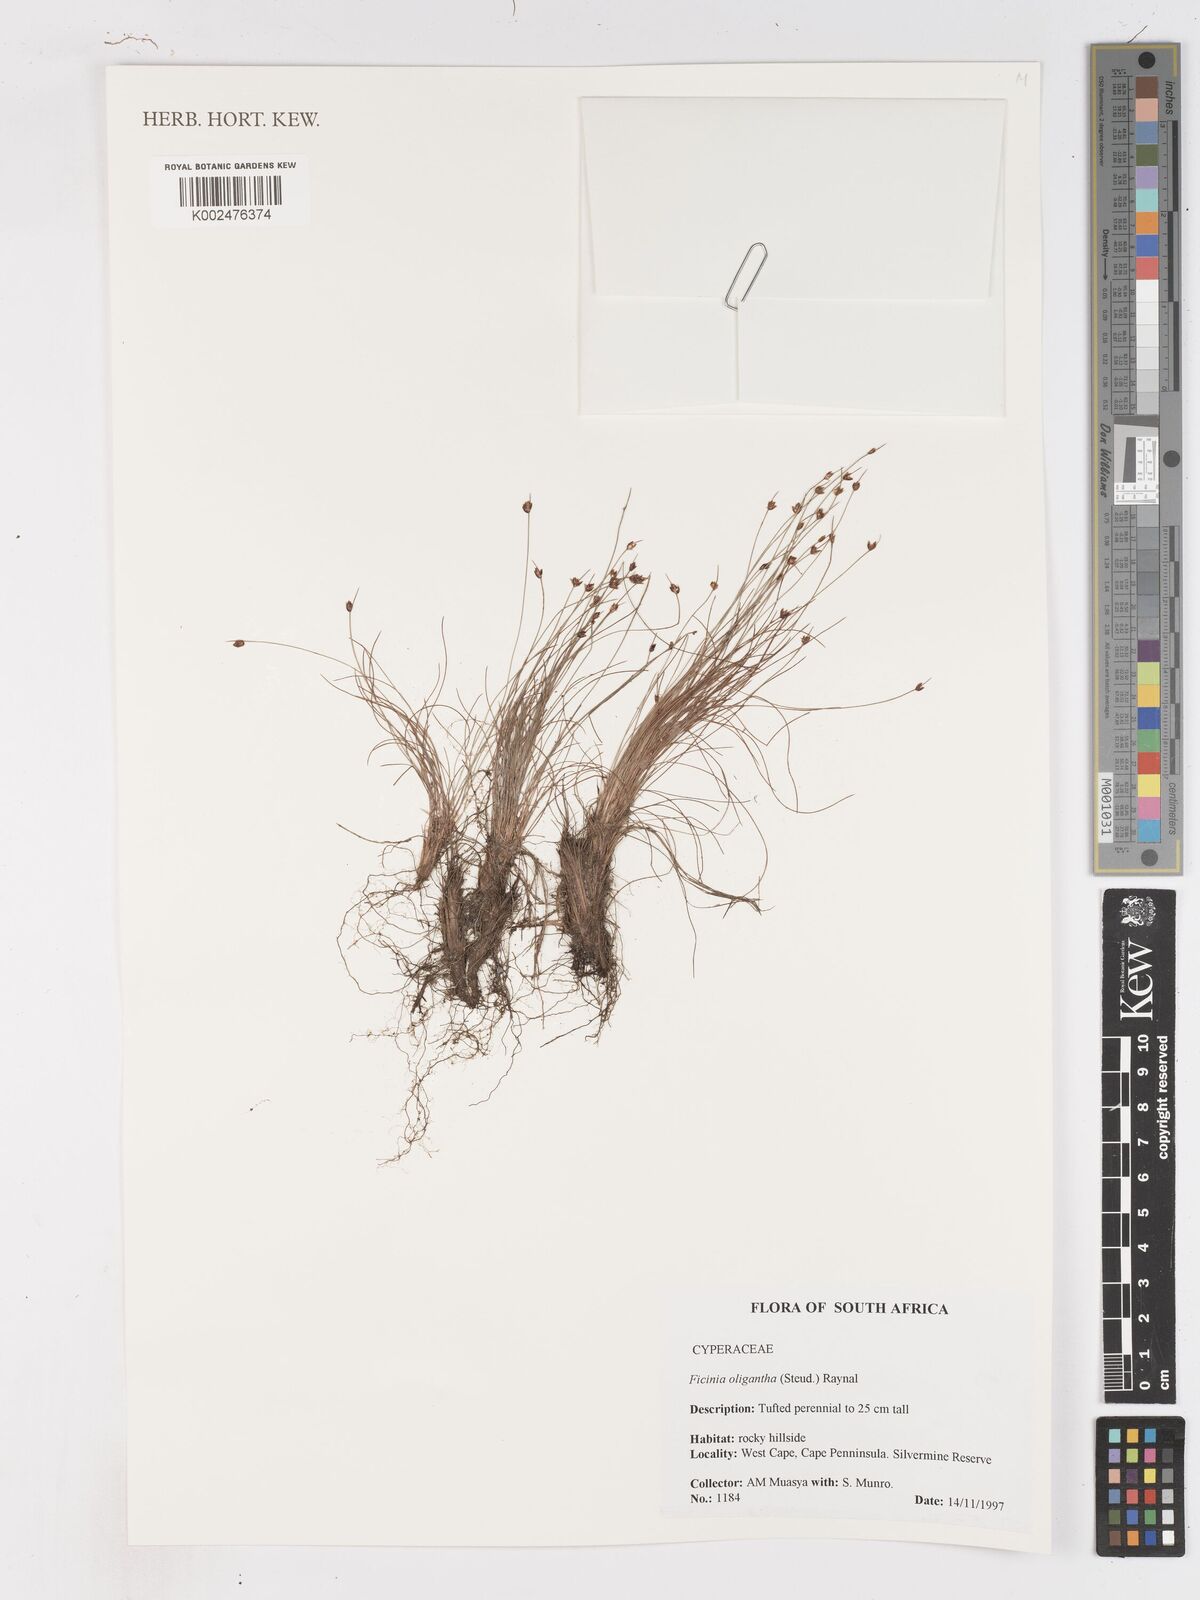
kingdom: Plantae
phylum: Tracheophyta
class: Liliopsida
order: Poales
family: Cyperaceae
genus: Ficinia
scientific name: Ficinia oligantha
